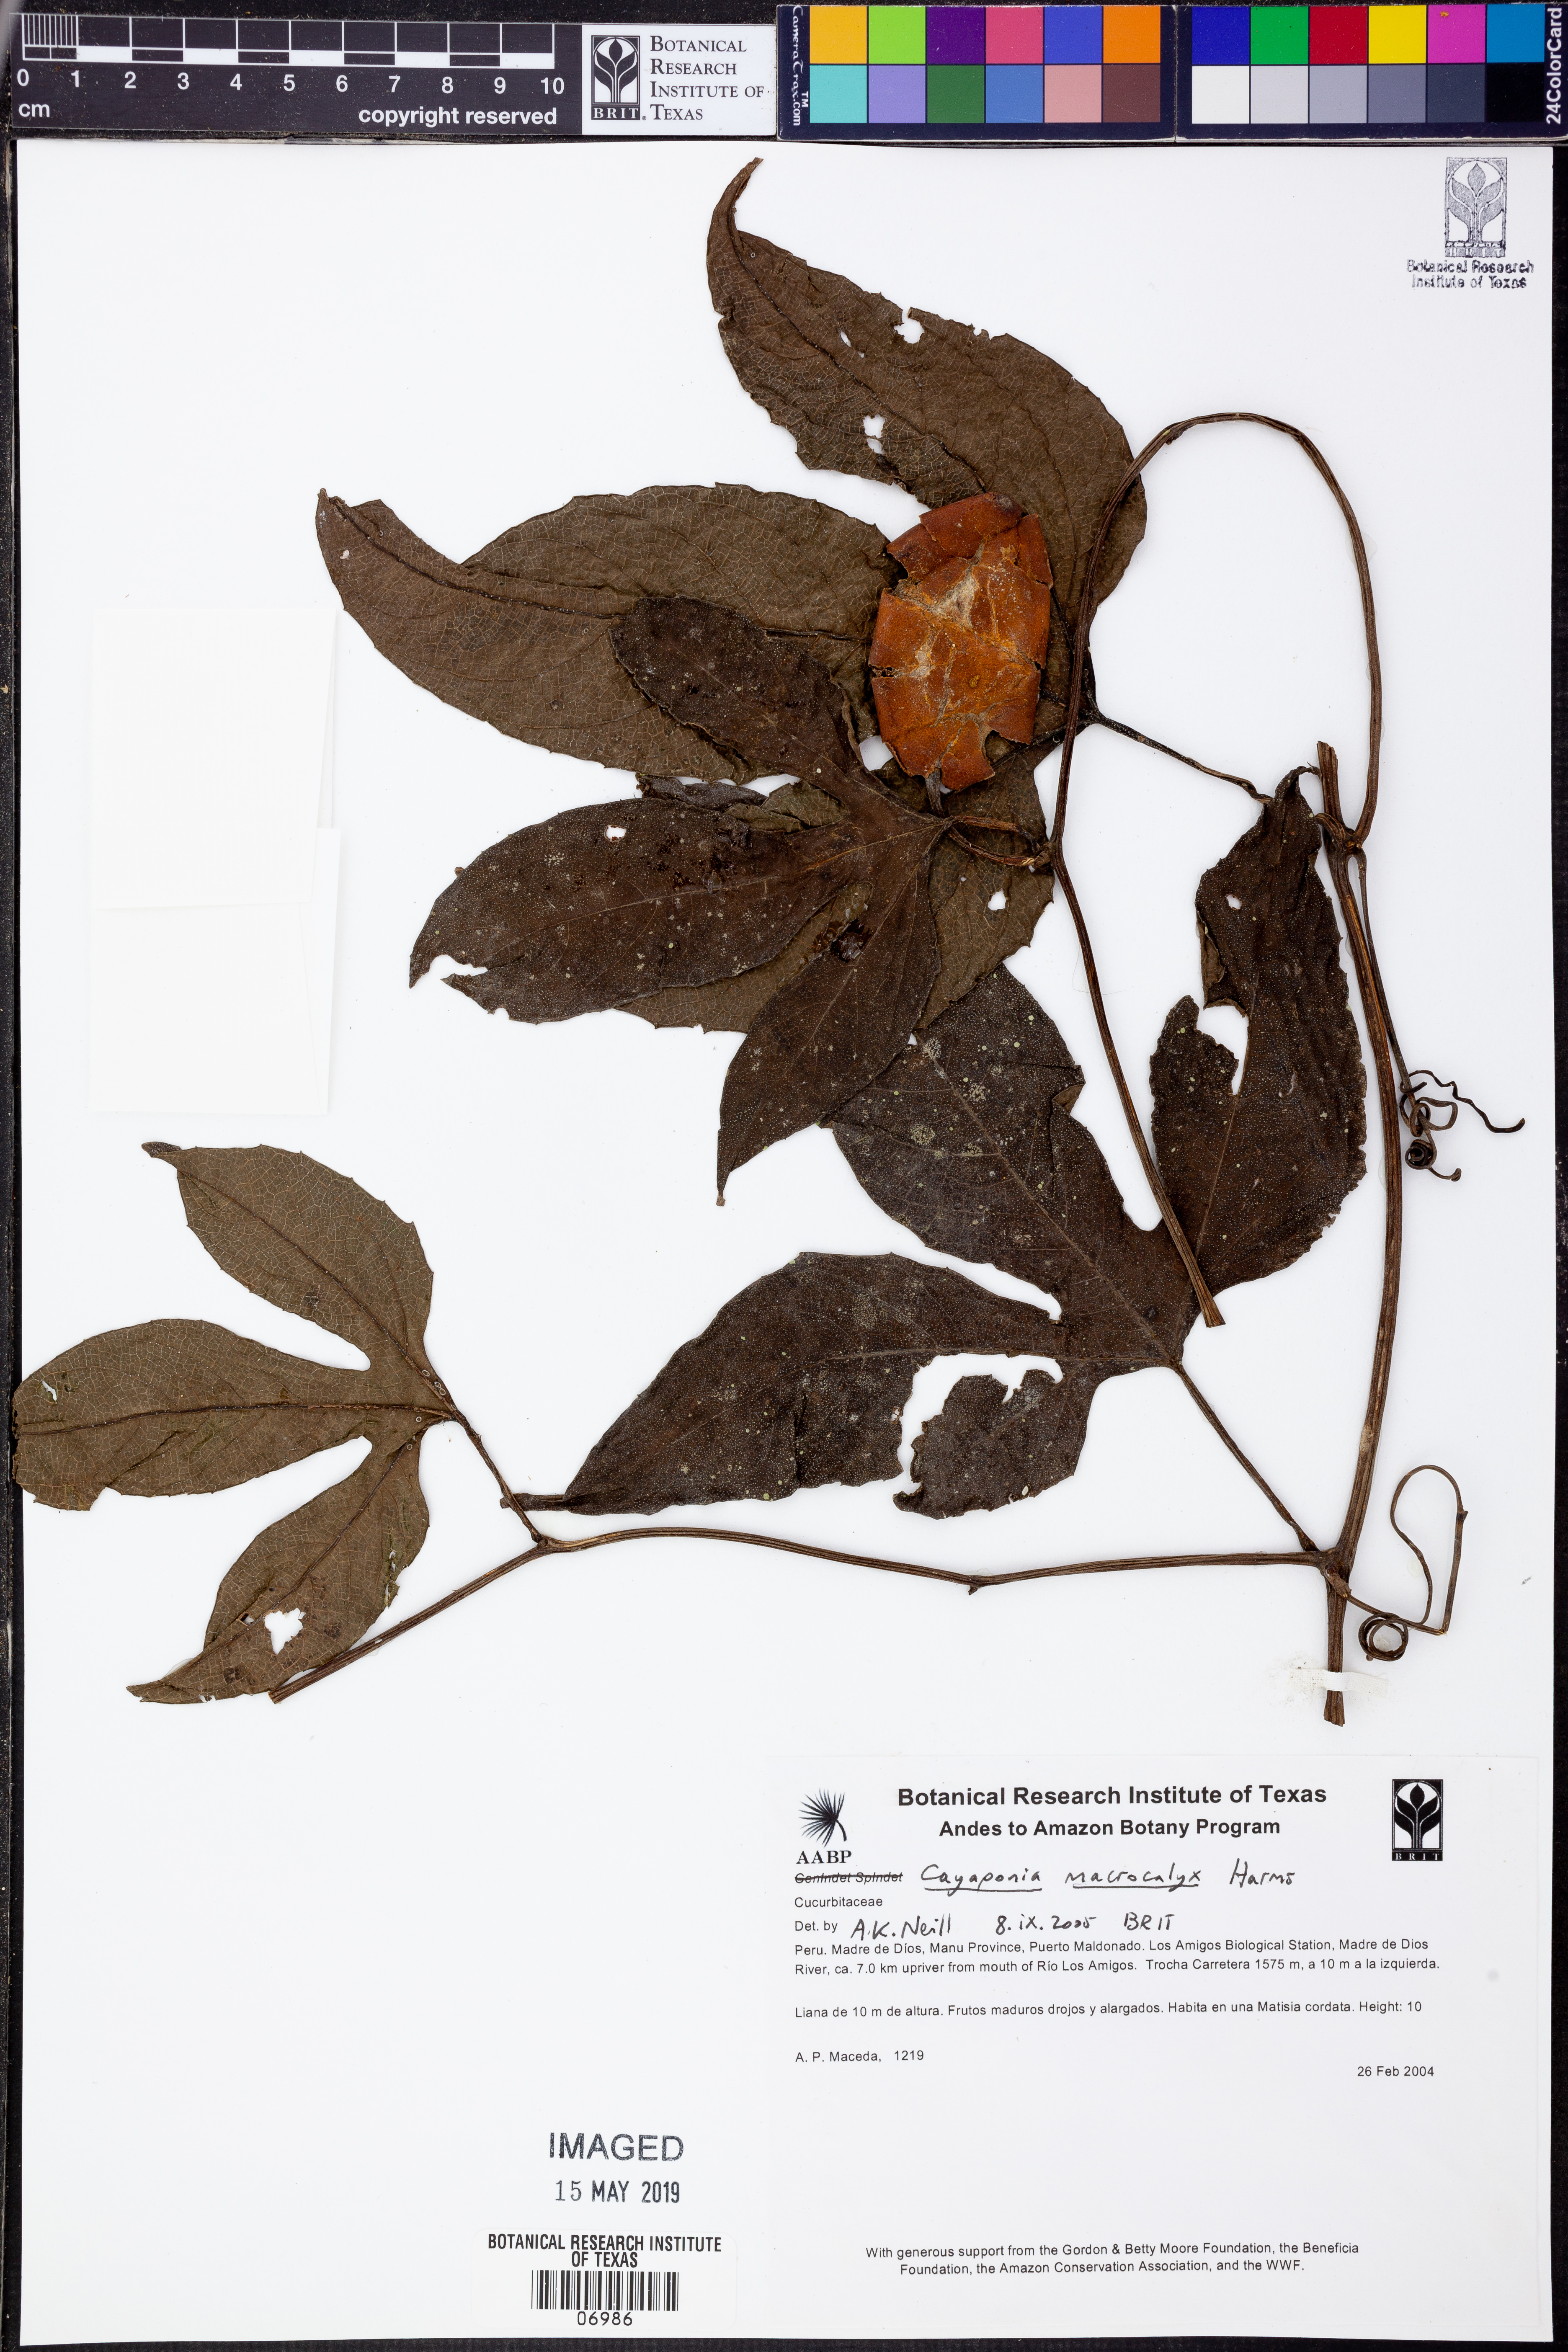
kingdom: Plantae
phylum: Tracheophyta
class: Magnoliopsida
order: Cucurbitales
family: Cucurbitaceae
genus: Cayaponia
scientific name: Cayaponia
